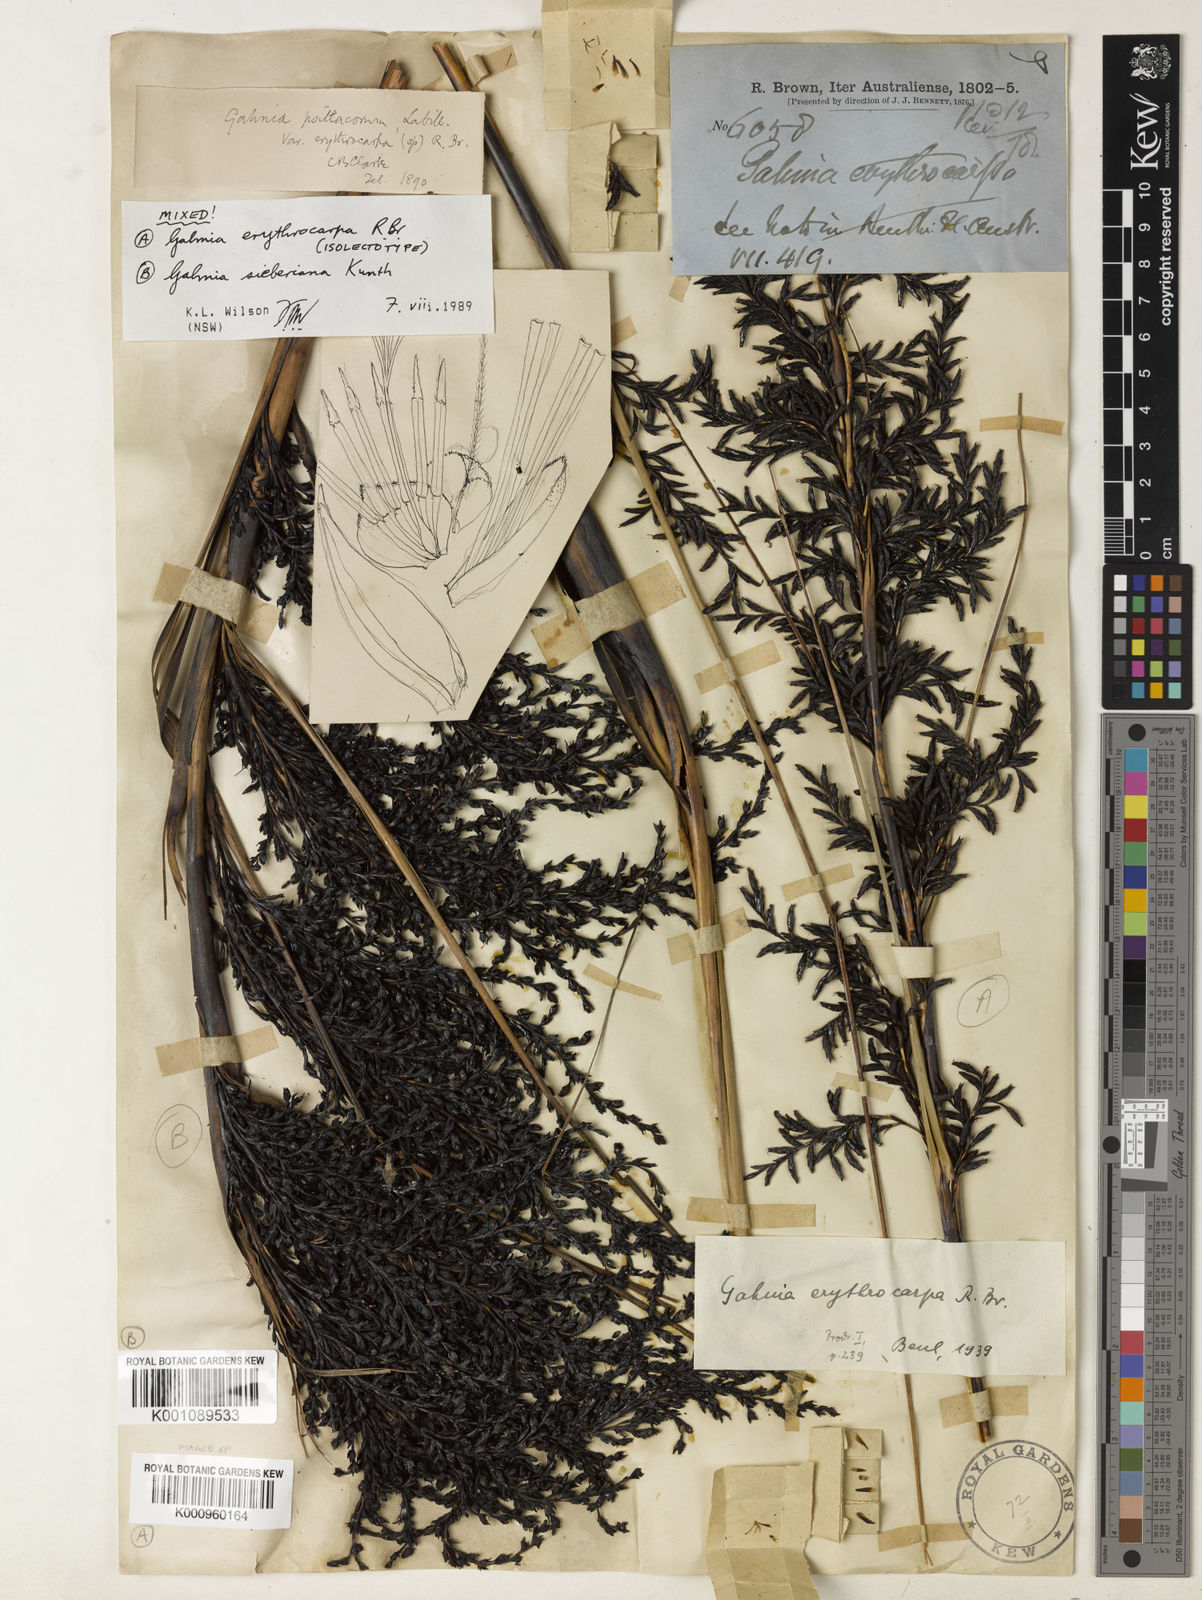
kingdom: Plantae
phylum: Tracheophyta
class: Liliopsida
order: Poales
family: Cyperaceae
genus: Gahnia
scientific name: Gahnia erythrocarpa
